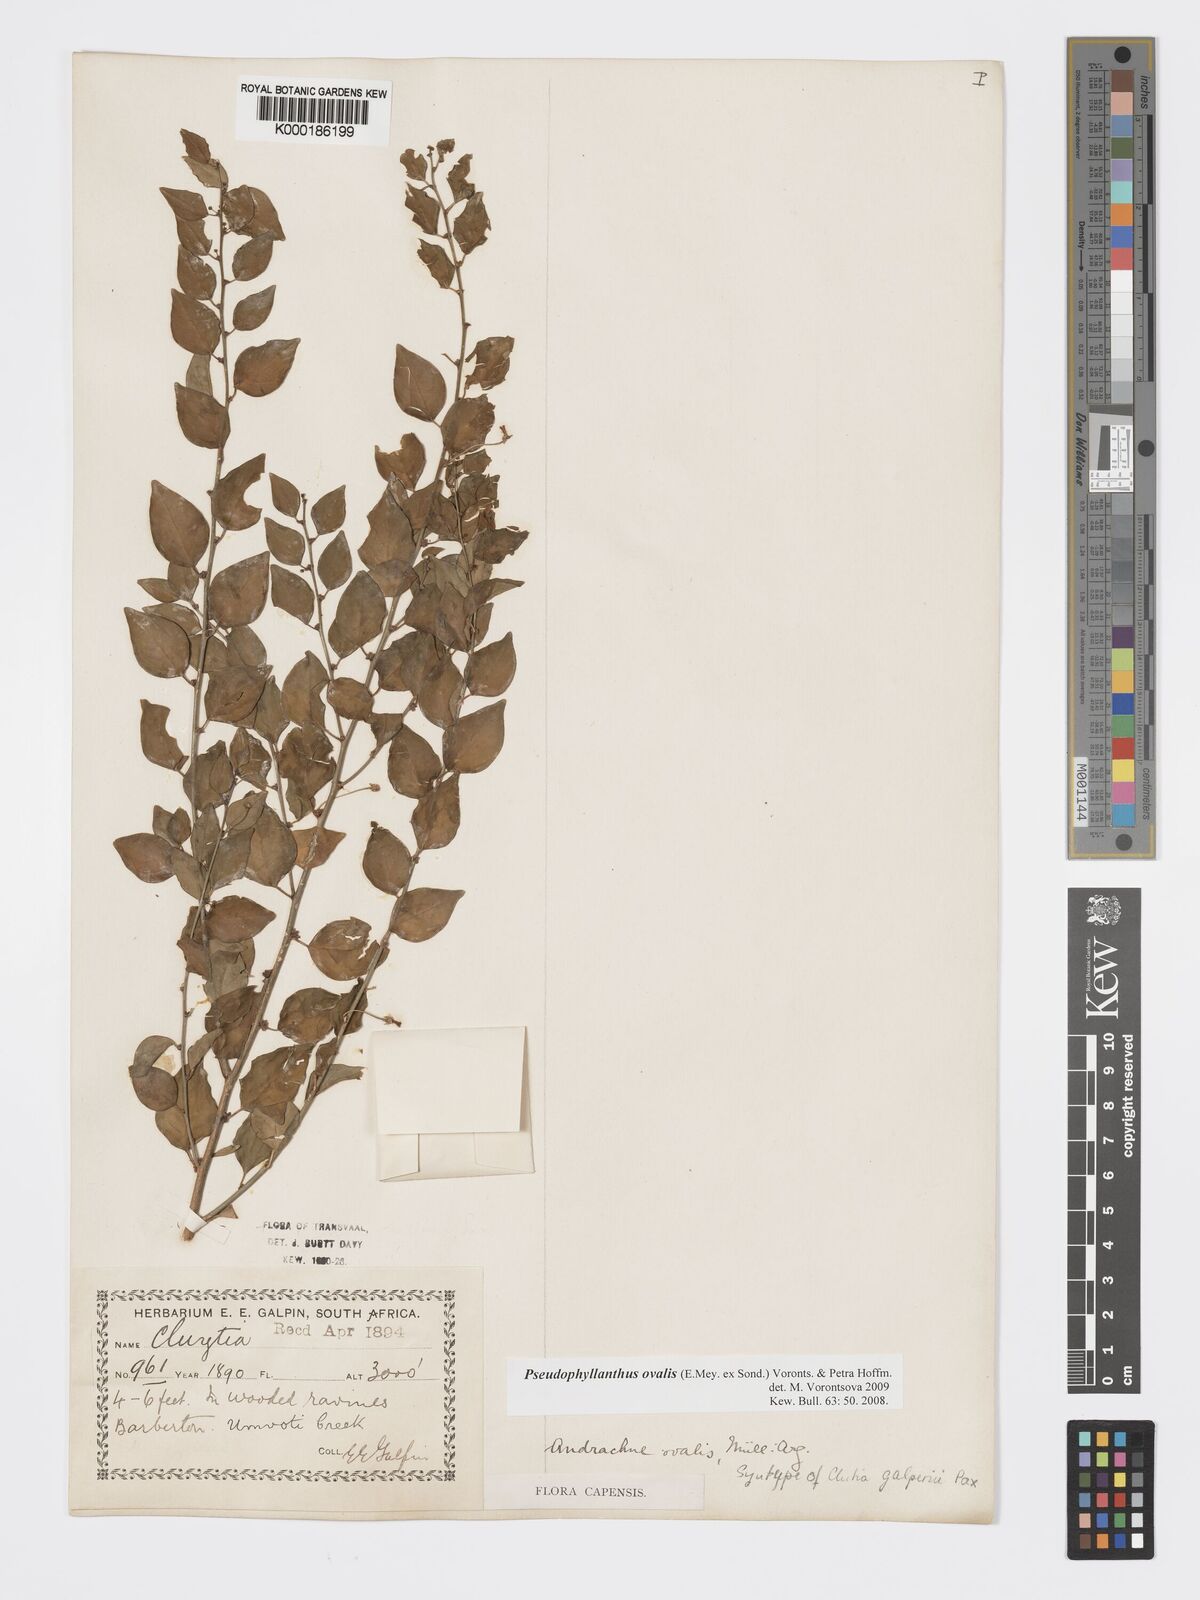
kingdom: Plantae
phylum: Tracheophyta
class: Magnoliopsida
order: Malpighiales
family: Phyllanthaceae
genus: Pseudophyllanthus
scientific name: Pseudophyllanthus ovalis
